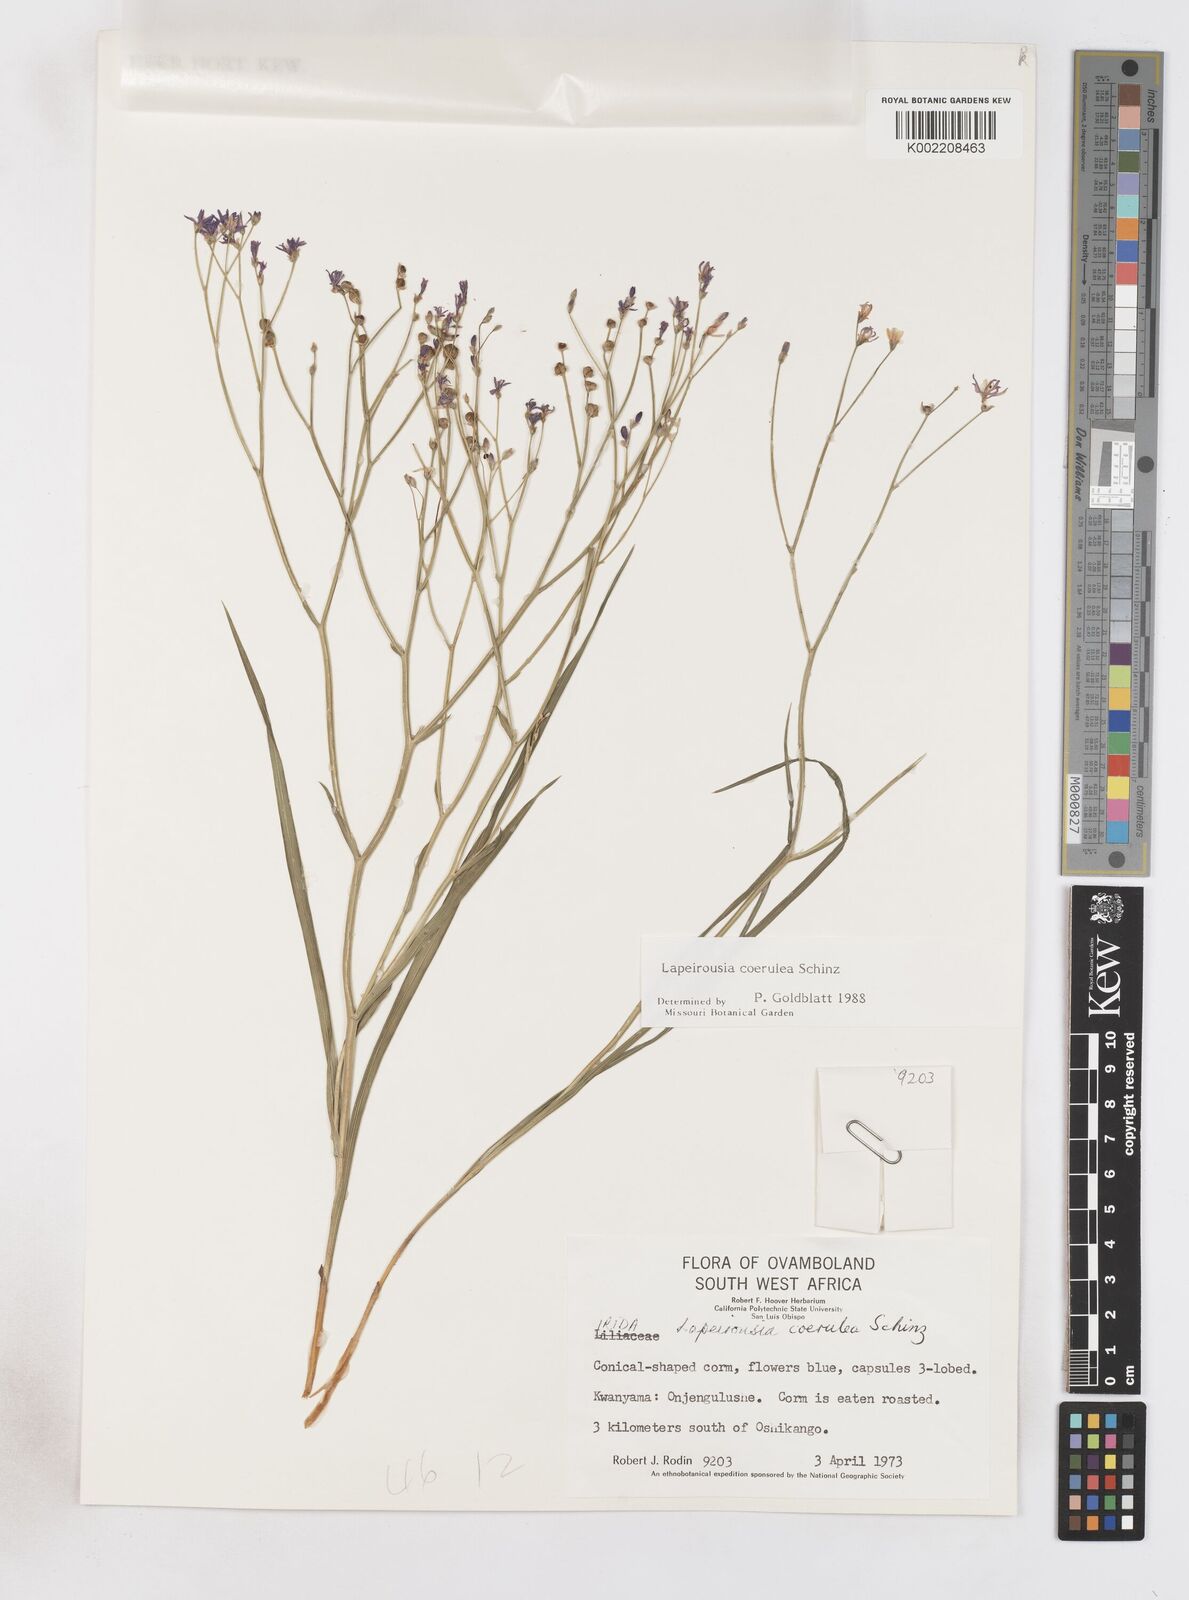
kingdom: Plantae
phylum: Tracheophyta
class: Liliopsida
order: Asparagales
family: Iridaceae
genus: Afrosolen
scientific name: Afrosolen coeruleus
